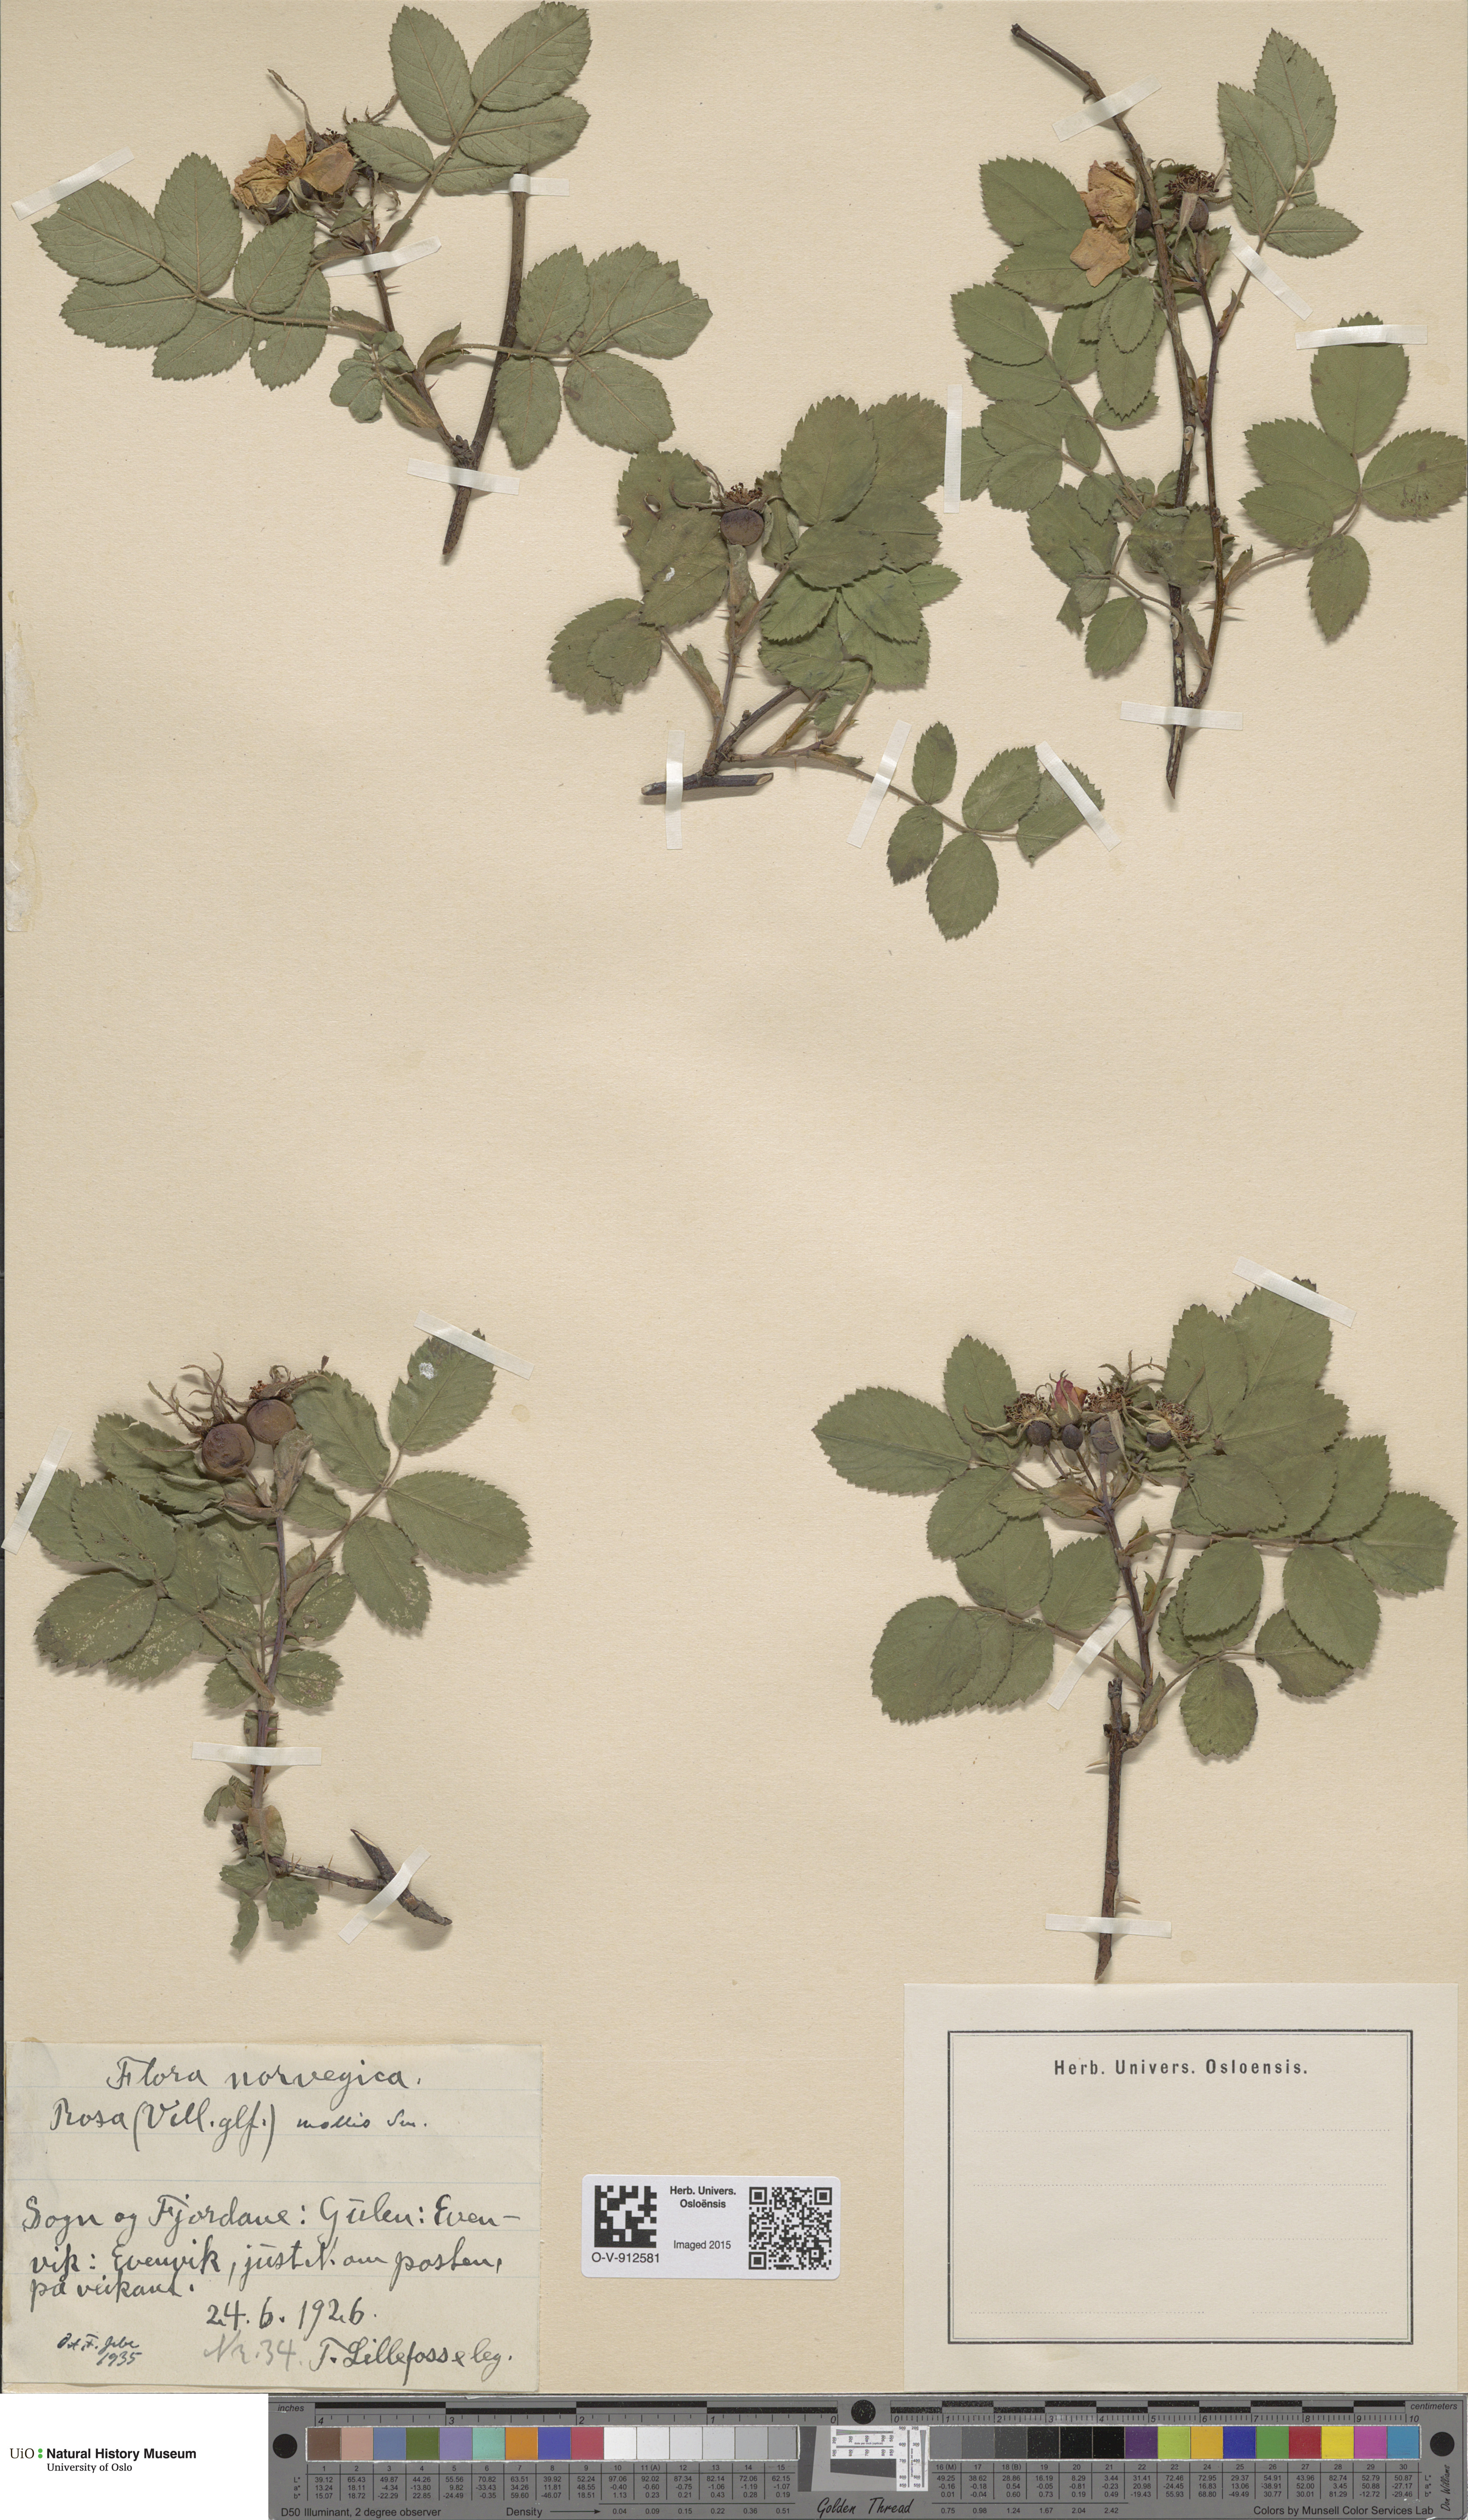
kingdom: Plantae
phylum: Tracheophyta
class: Magnoliopsida
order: Rosales
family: Rosaceae
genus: Rosa
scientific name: Rosa mollis
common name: Rose
